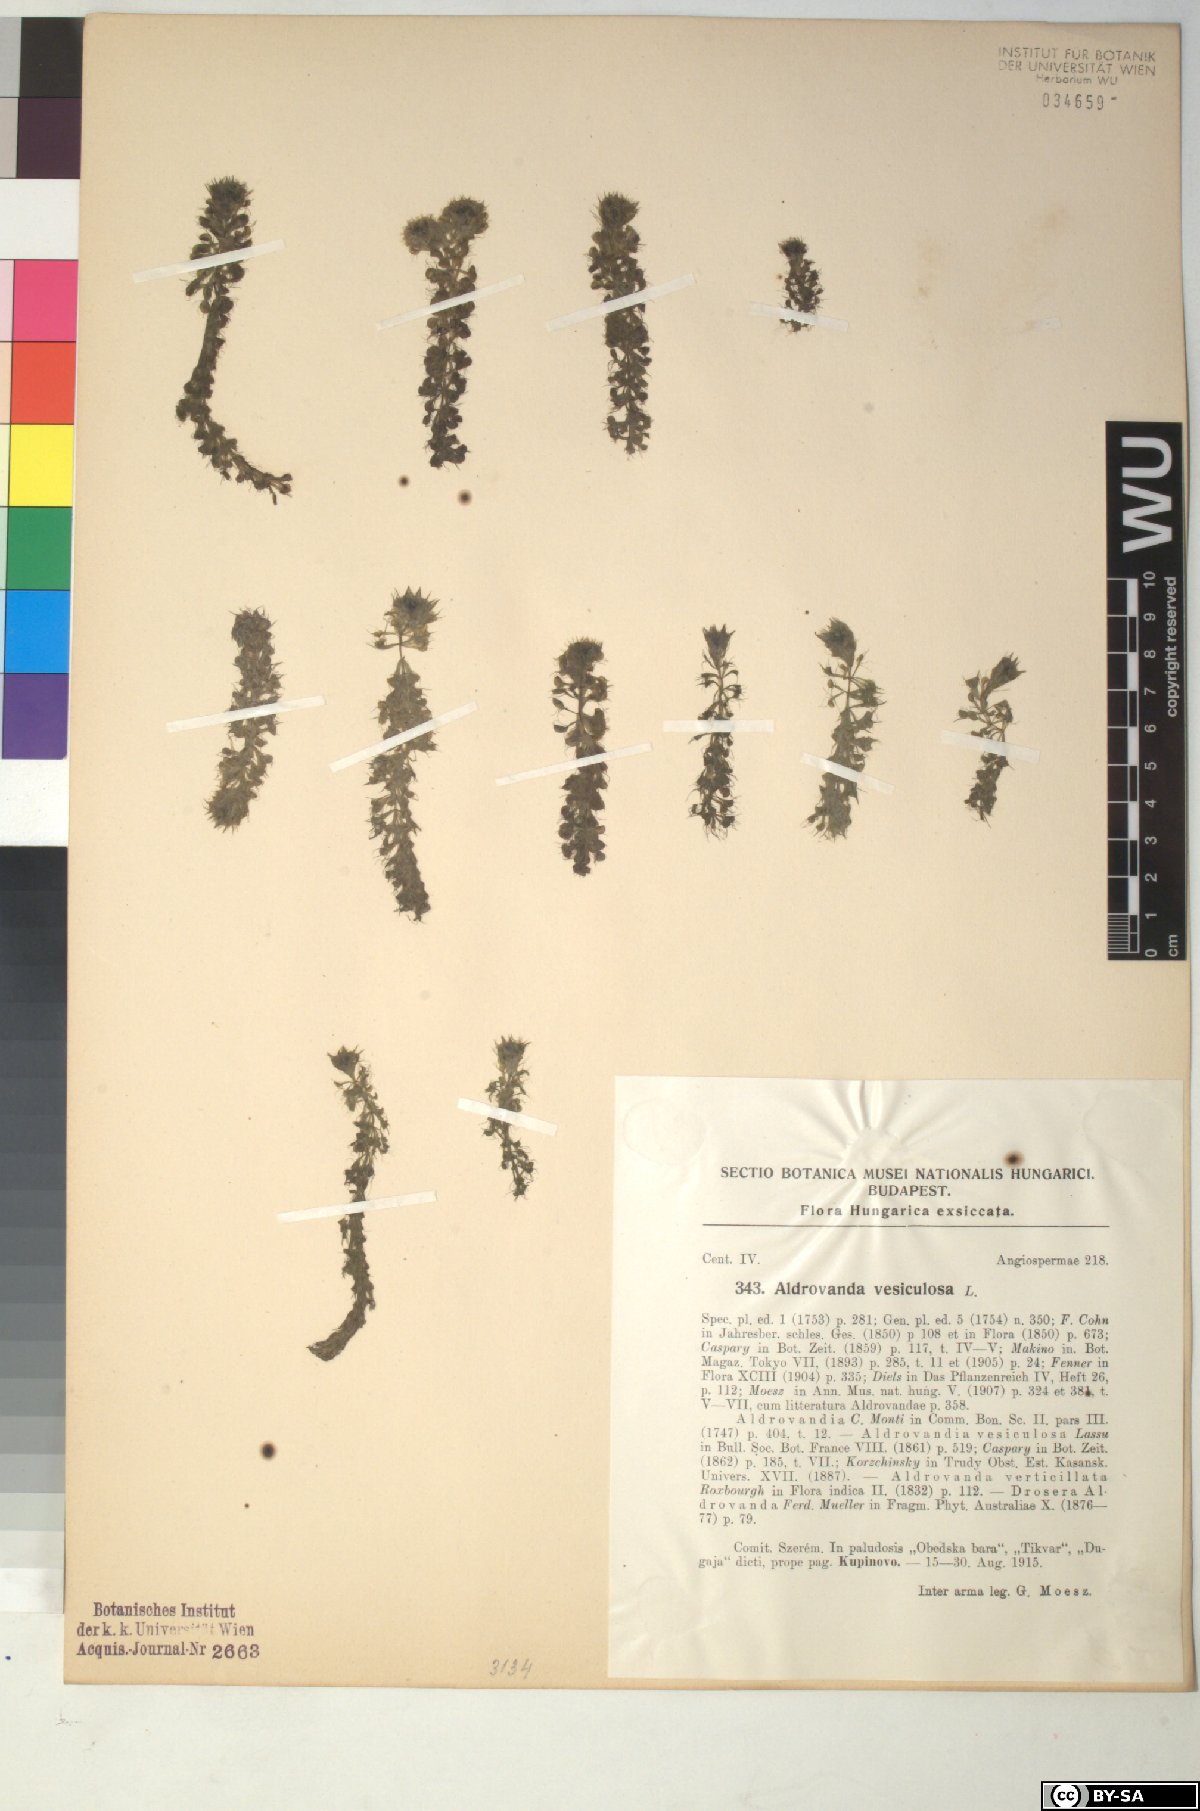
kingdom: Plantae
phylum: Tracheophyta
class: Magnoliopsida
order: Caryophyllales
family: Droseraceae
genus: Aldrovanda
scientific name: Aldrovanda vesiculosa
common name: Waterwheel plant
